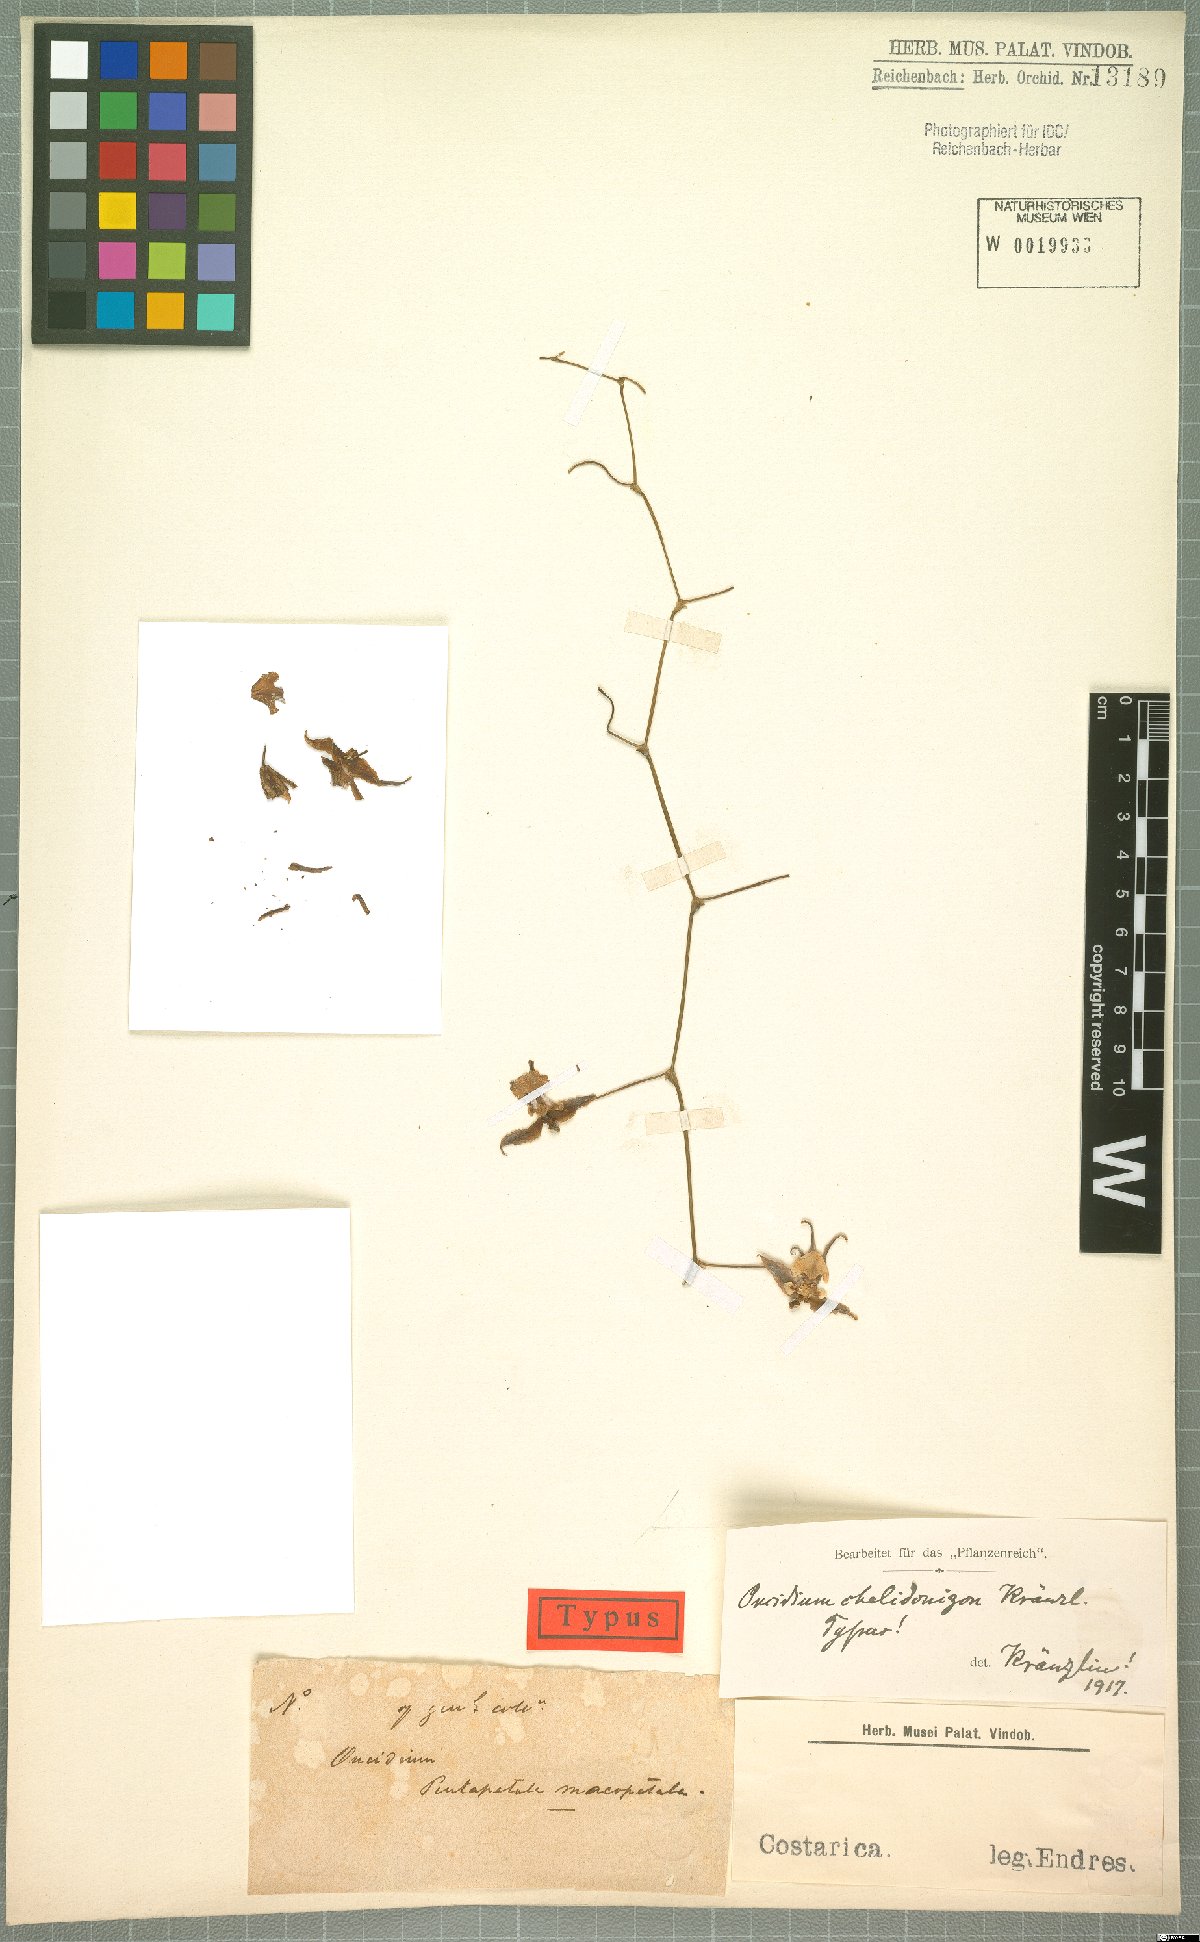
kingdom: Plantae
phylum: Tracheophyta
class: Liliopsida
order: Asparagales
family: Orchidaceae
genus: Cyrtochiloides
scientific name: Cyrtochiloides ochmatochila
